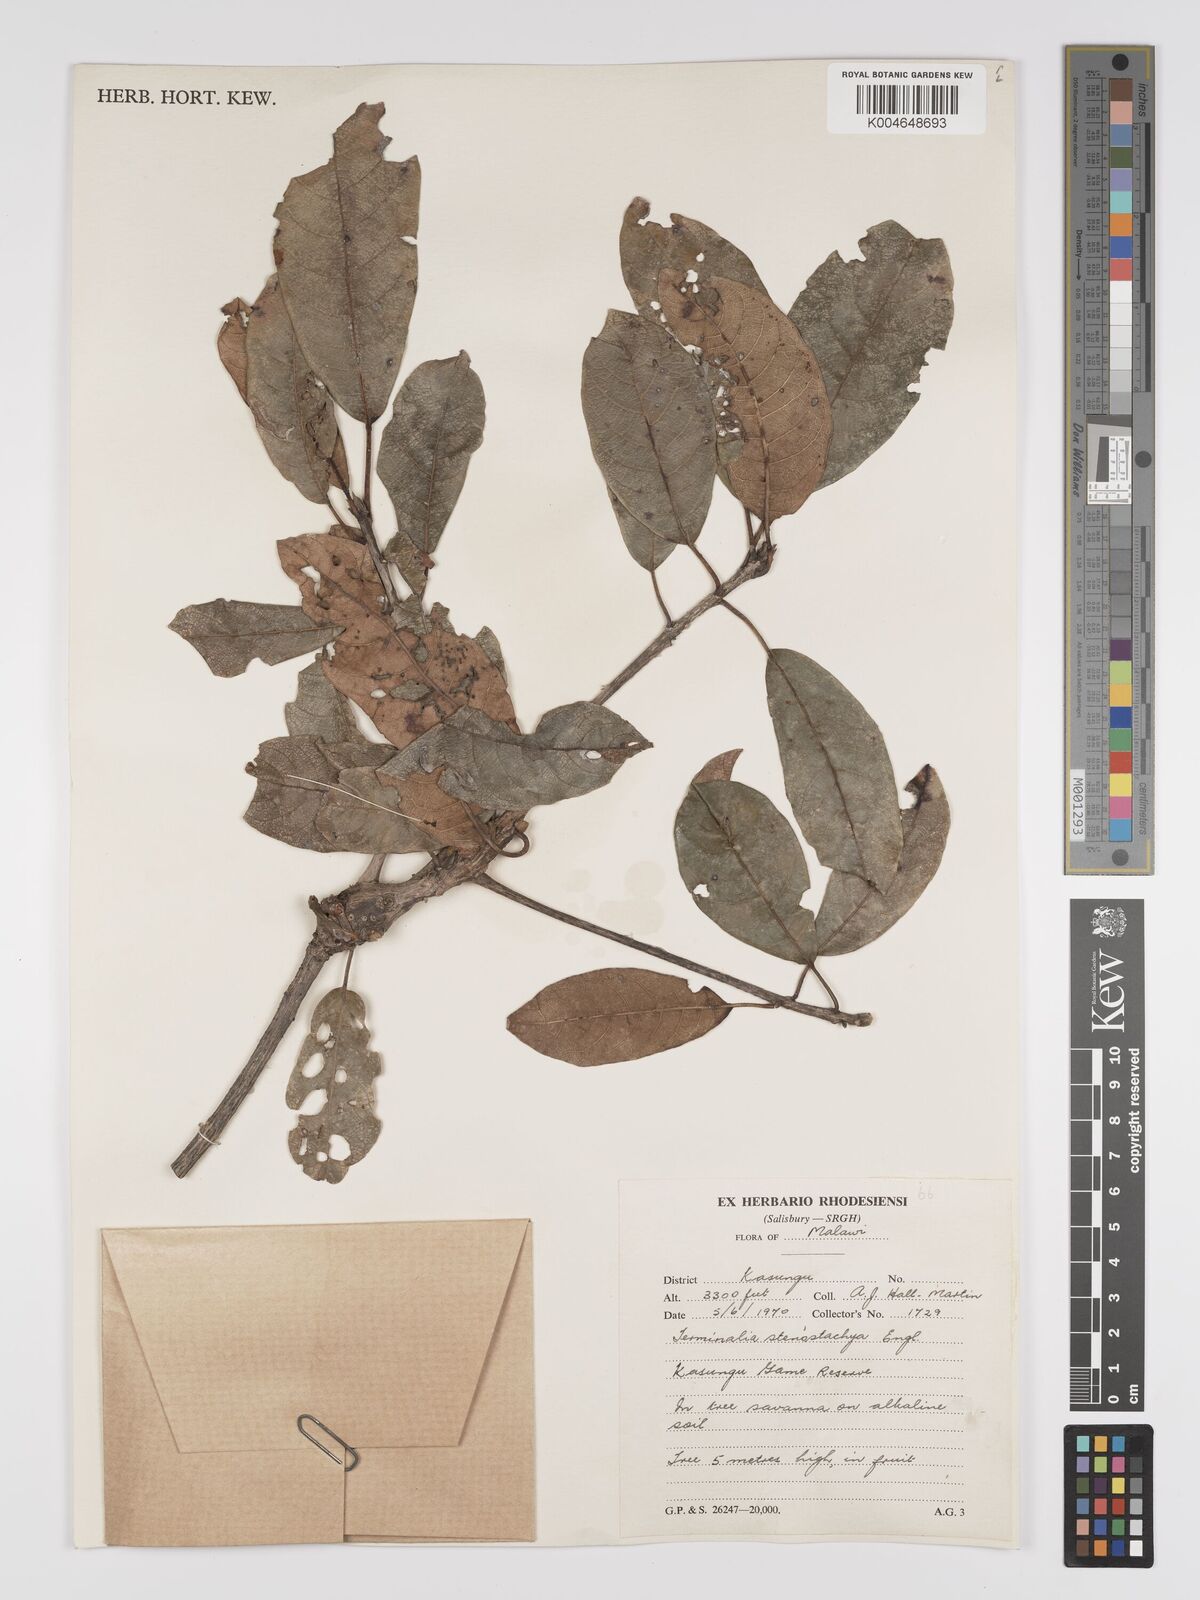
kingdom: Plantae
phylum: Tracheophyta
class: Magnoliopsida
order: Myrtales
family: Combretaceae
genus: Terminalia
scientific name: Terminalia stenostachya
